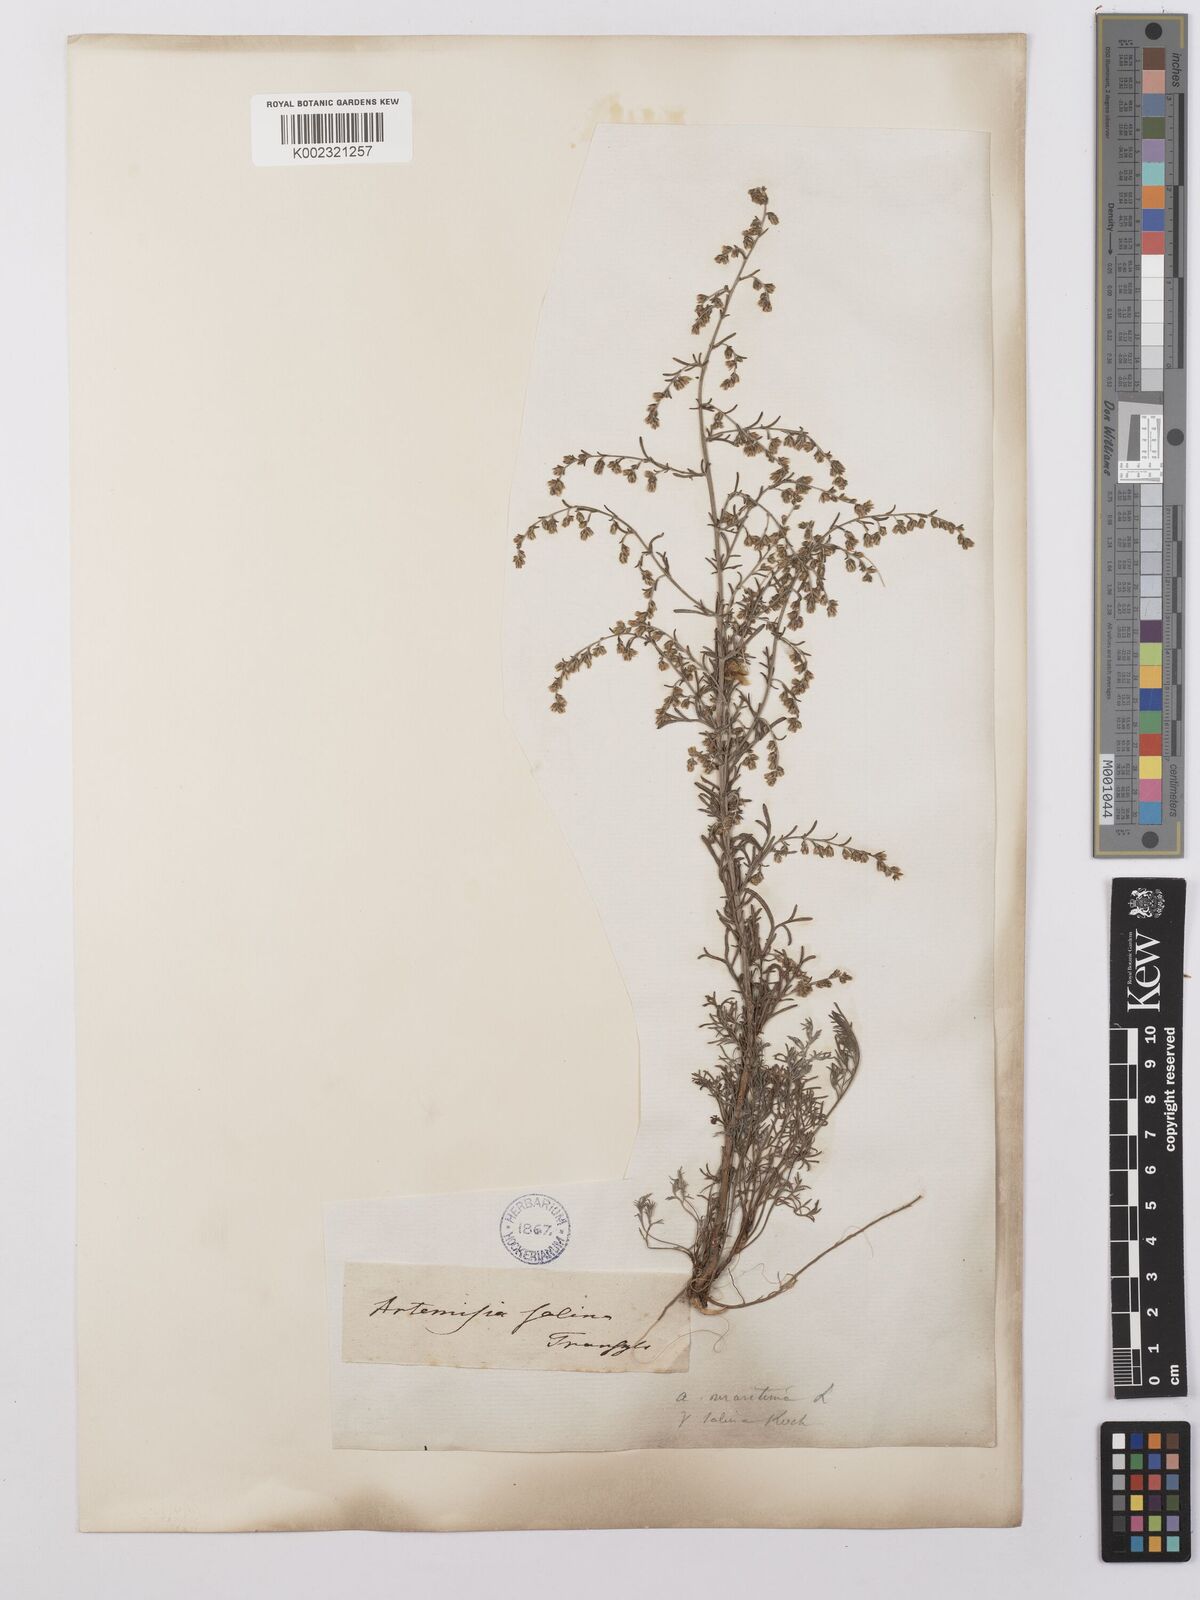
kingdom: Plantae
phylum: Tracheophyta
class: Magnoliopsida
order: Asterales
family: Asteraceae
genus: Artemisia
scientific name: Artemisia maritima
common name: Wormseed
